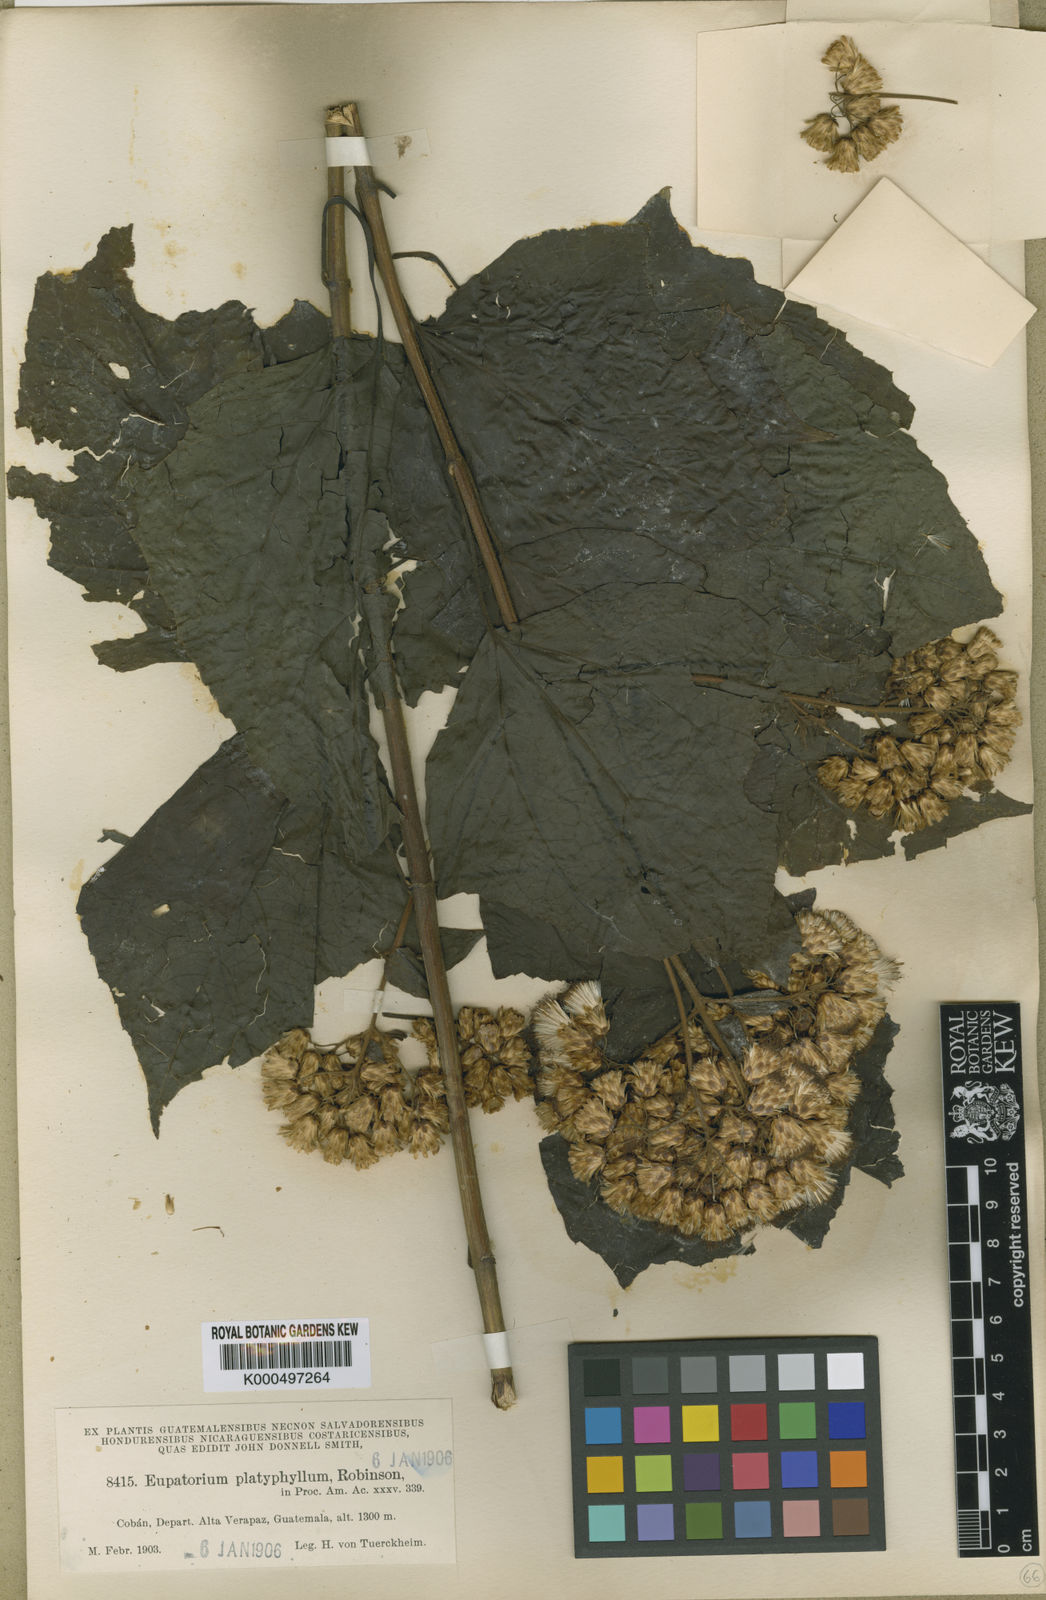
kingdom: Plantae
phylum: Tracheophyta
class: Magnoliopsida
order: Asterales
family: Asteraceae
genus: Bartlettina
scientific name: Bartlettina platyphylla
